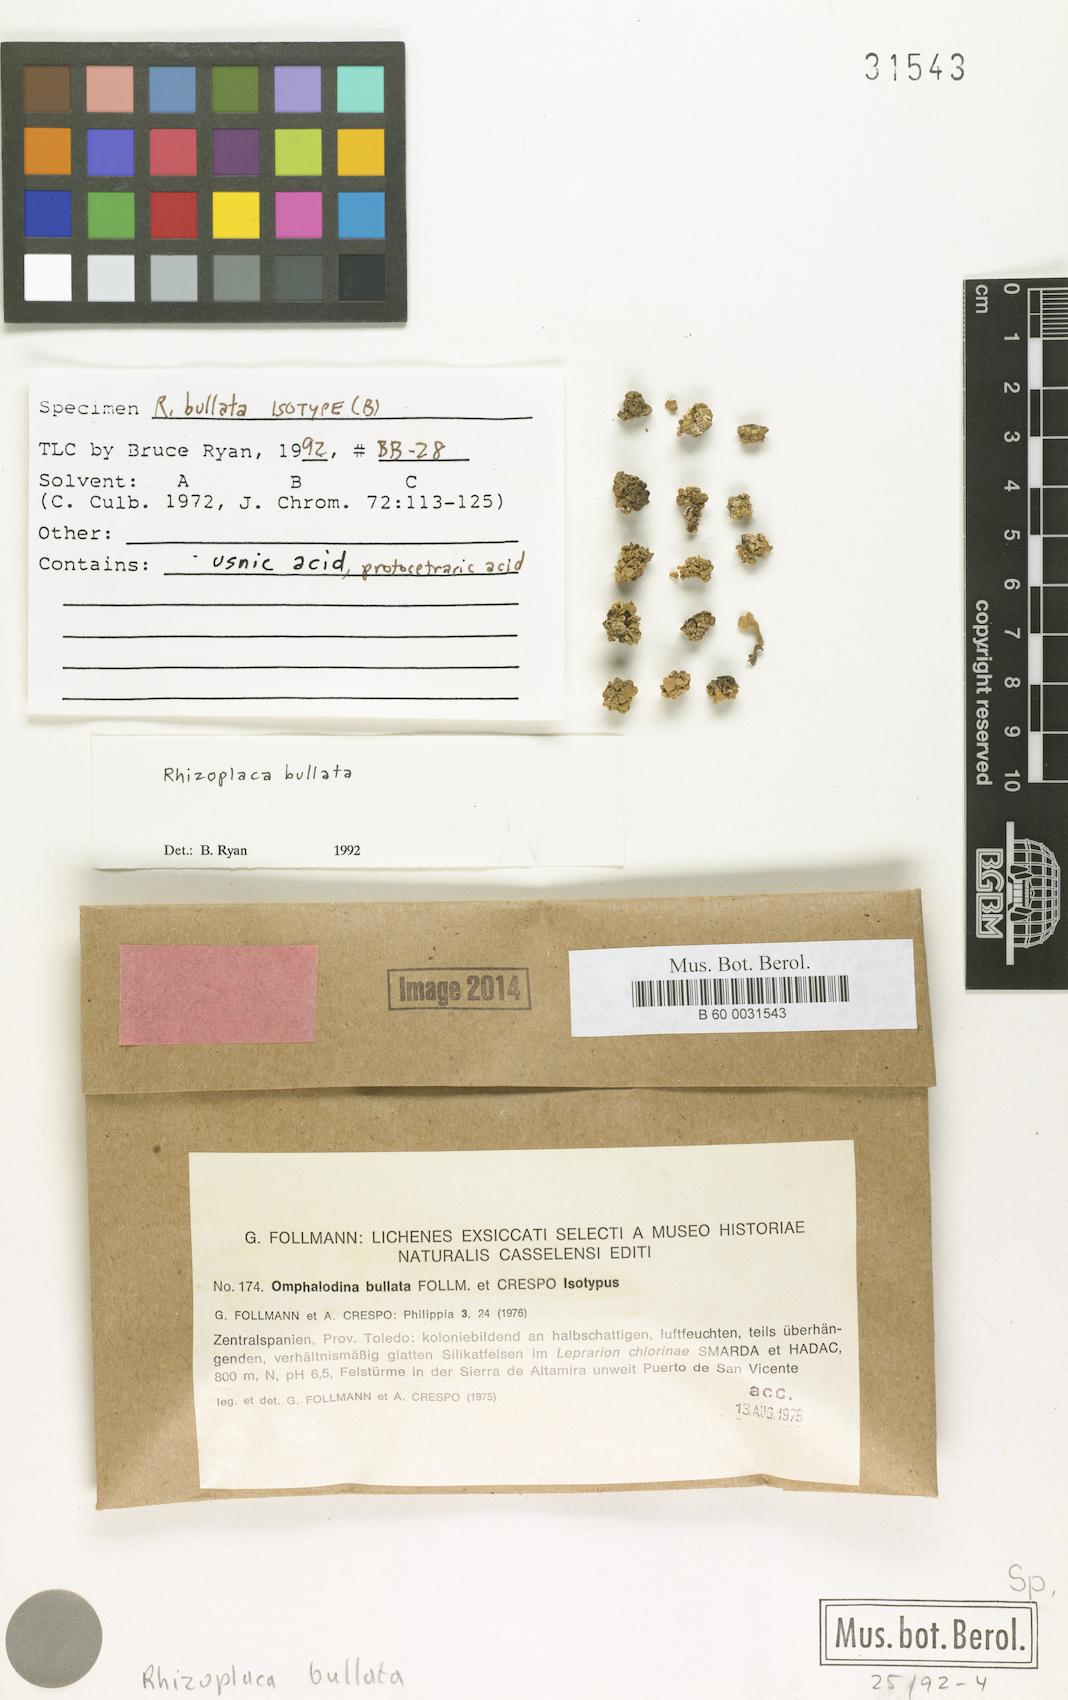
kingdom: Fungi
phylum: Ascomycota
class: Lecanoromycetes
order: Lecanorales
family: Lecanoraceae
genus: Straminella
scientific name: Straminella bullata
